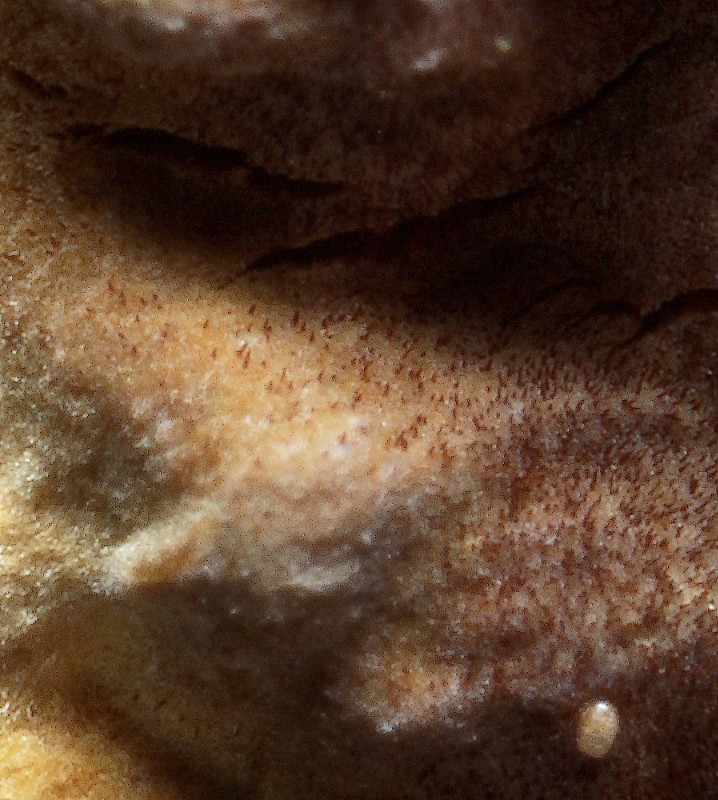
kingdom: Fungi
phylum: Basidiomycota
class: Agaricomycetes
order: Hymenochaetales
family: Hymenochaetaceae
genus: Hydnoporia
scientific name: Hydnoporia tabacina
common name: tobaksbrun ruslædersvamp
